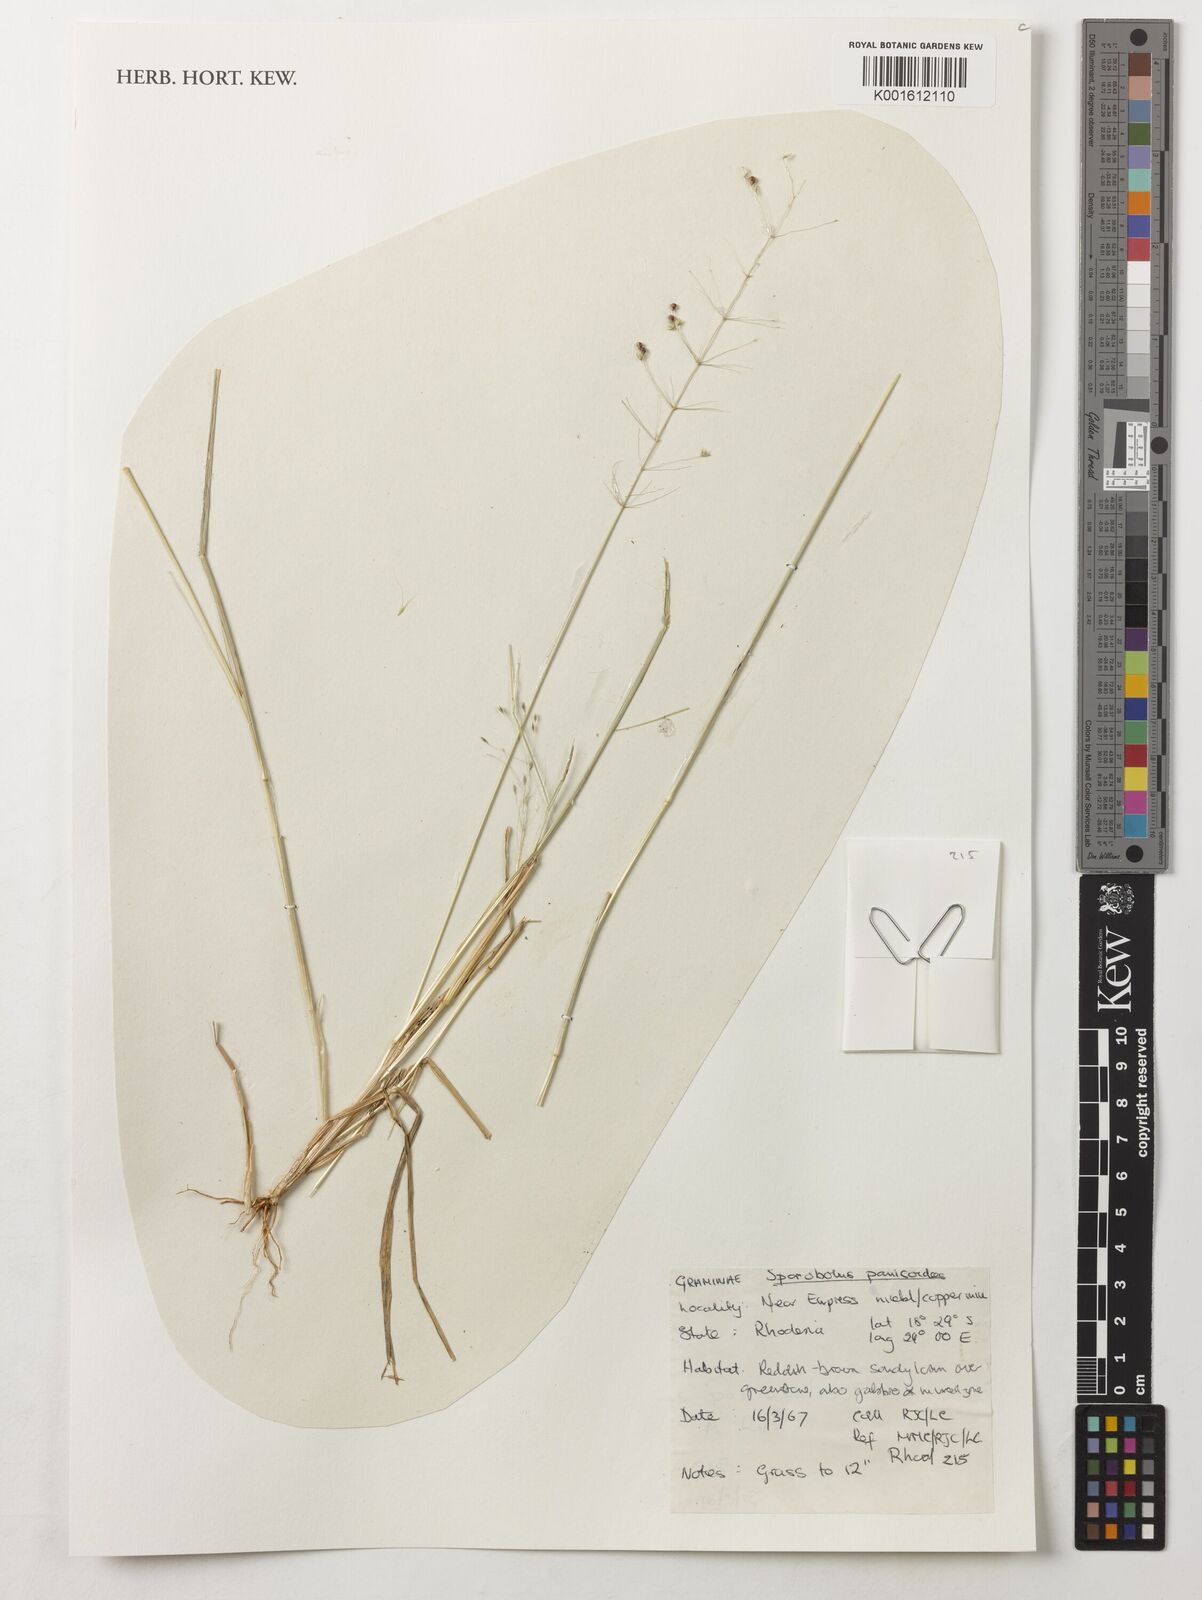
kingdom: Plantae
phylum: Tracheophyta
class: Liliopsida
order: Poales
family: Poaceae
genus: Sporobolus
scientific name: Sporobolus panicoides
